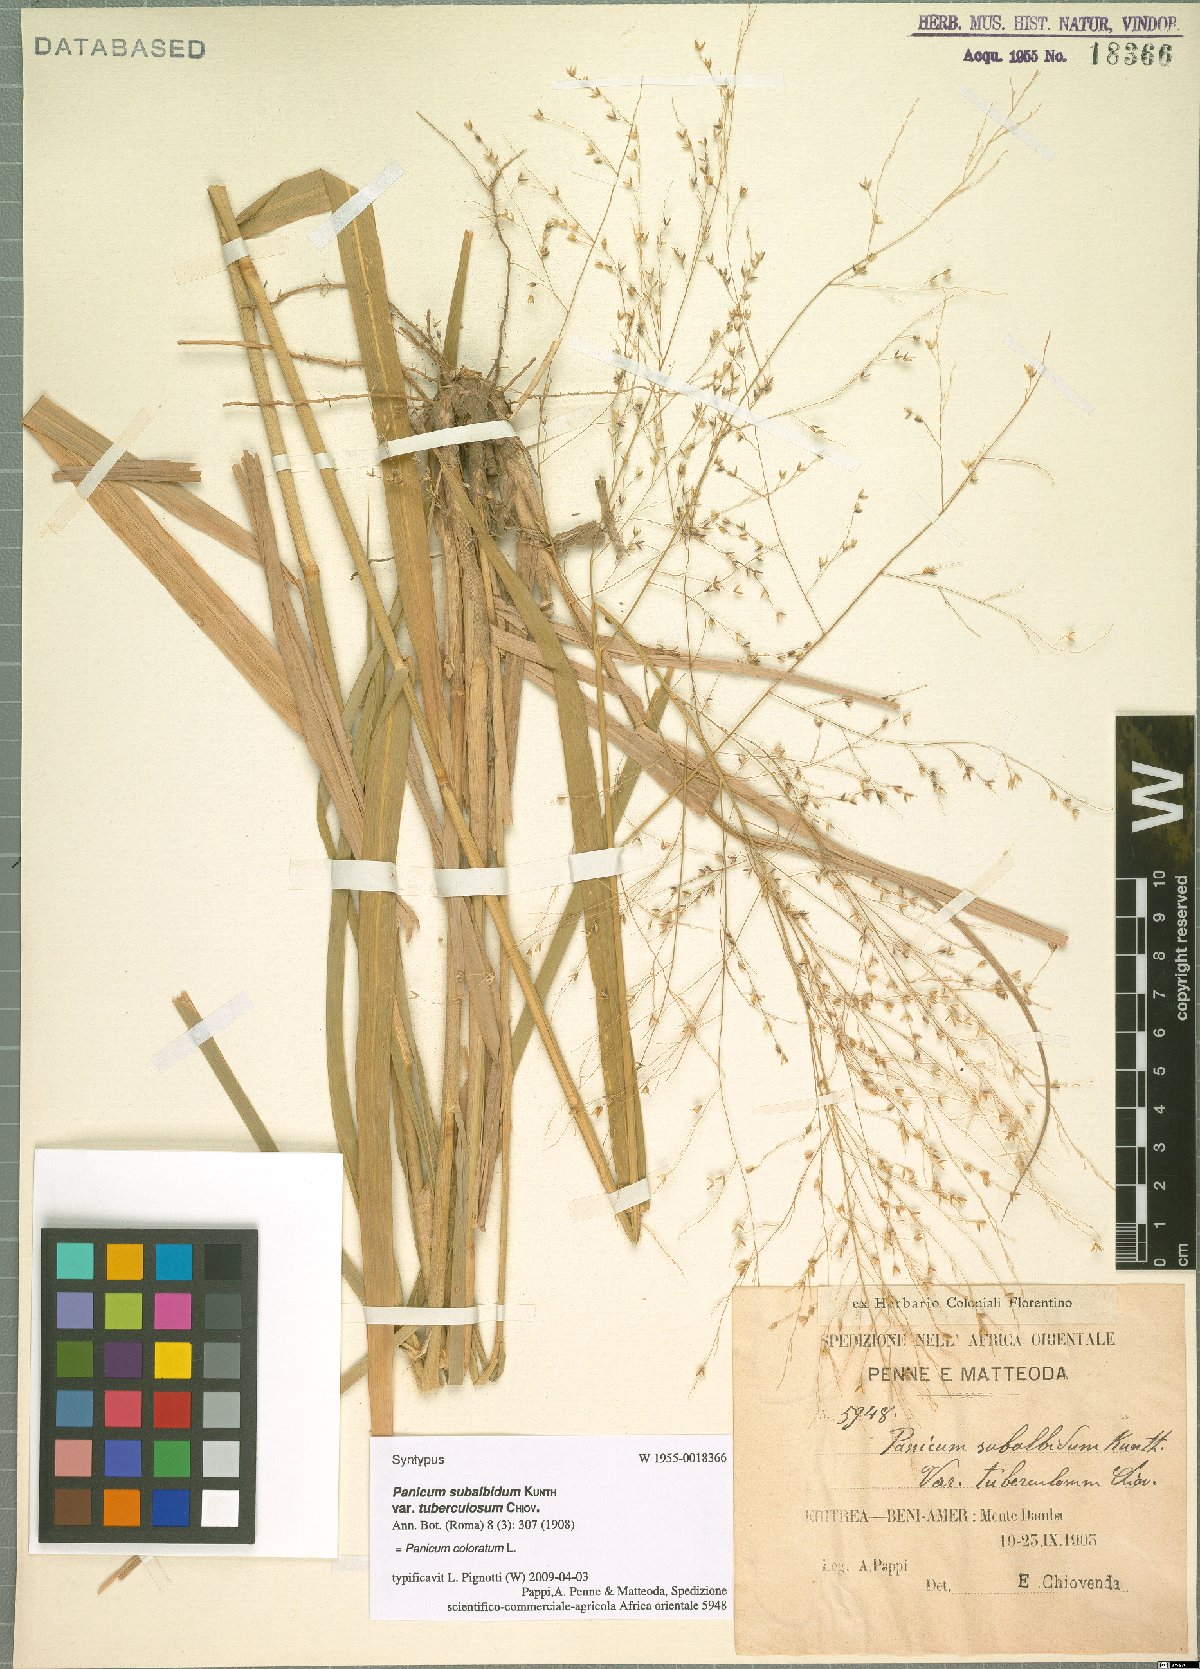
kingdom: Plantae
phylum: Tracheophyta
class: Liliopsida
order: Poales
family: Poaceae
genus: Panicum
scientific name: Panicum coloratum
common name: Kleingrass
